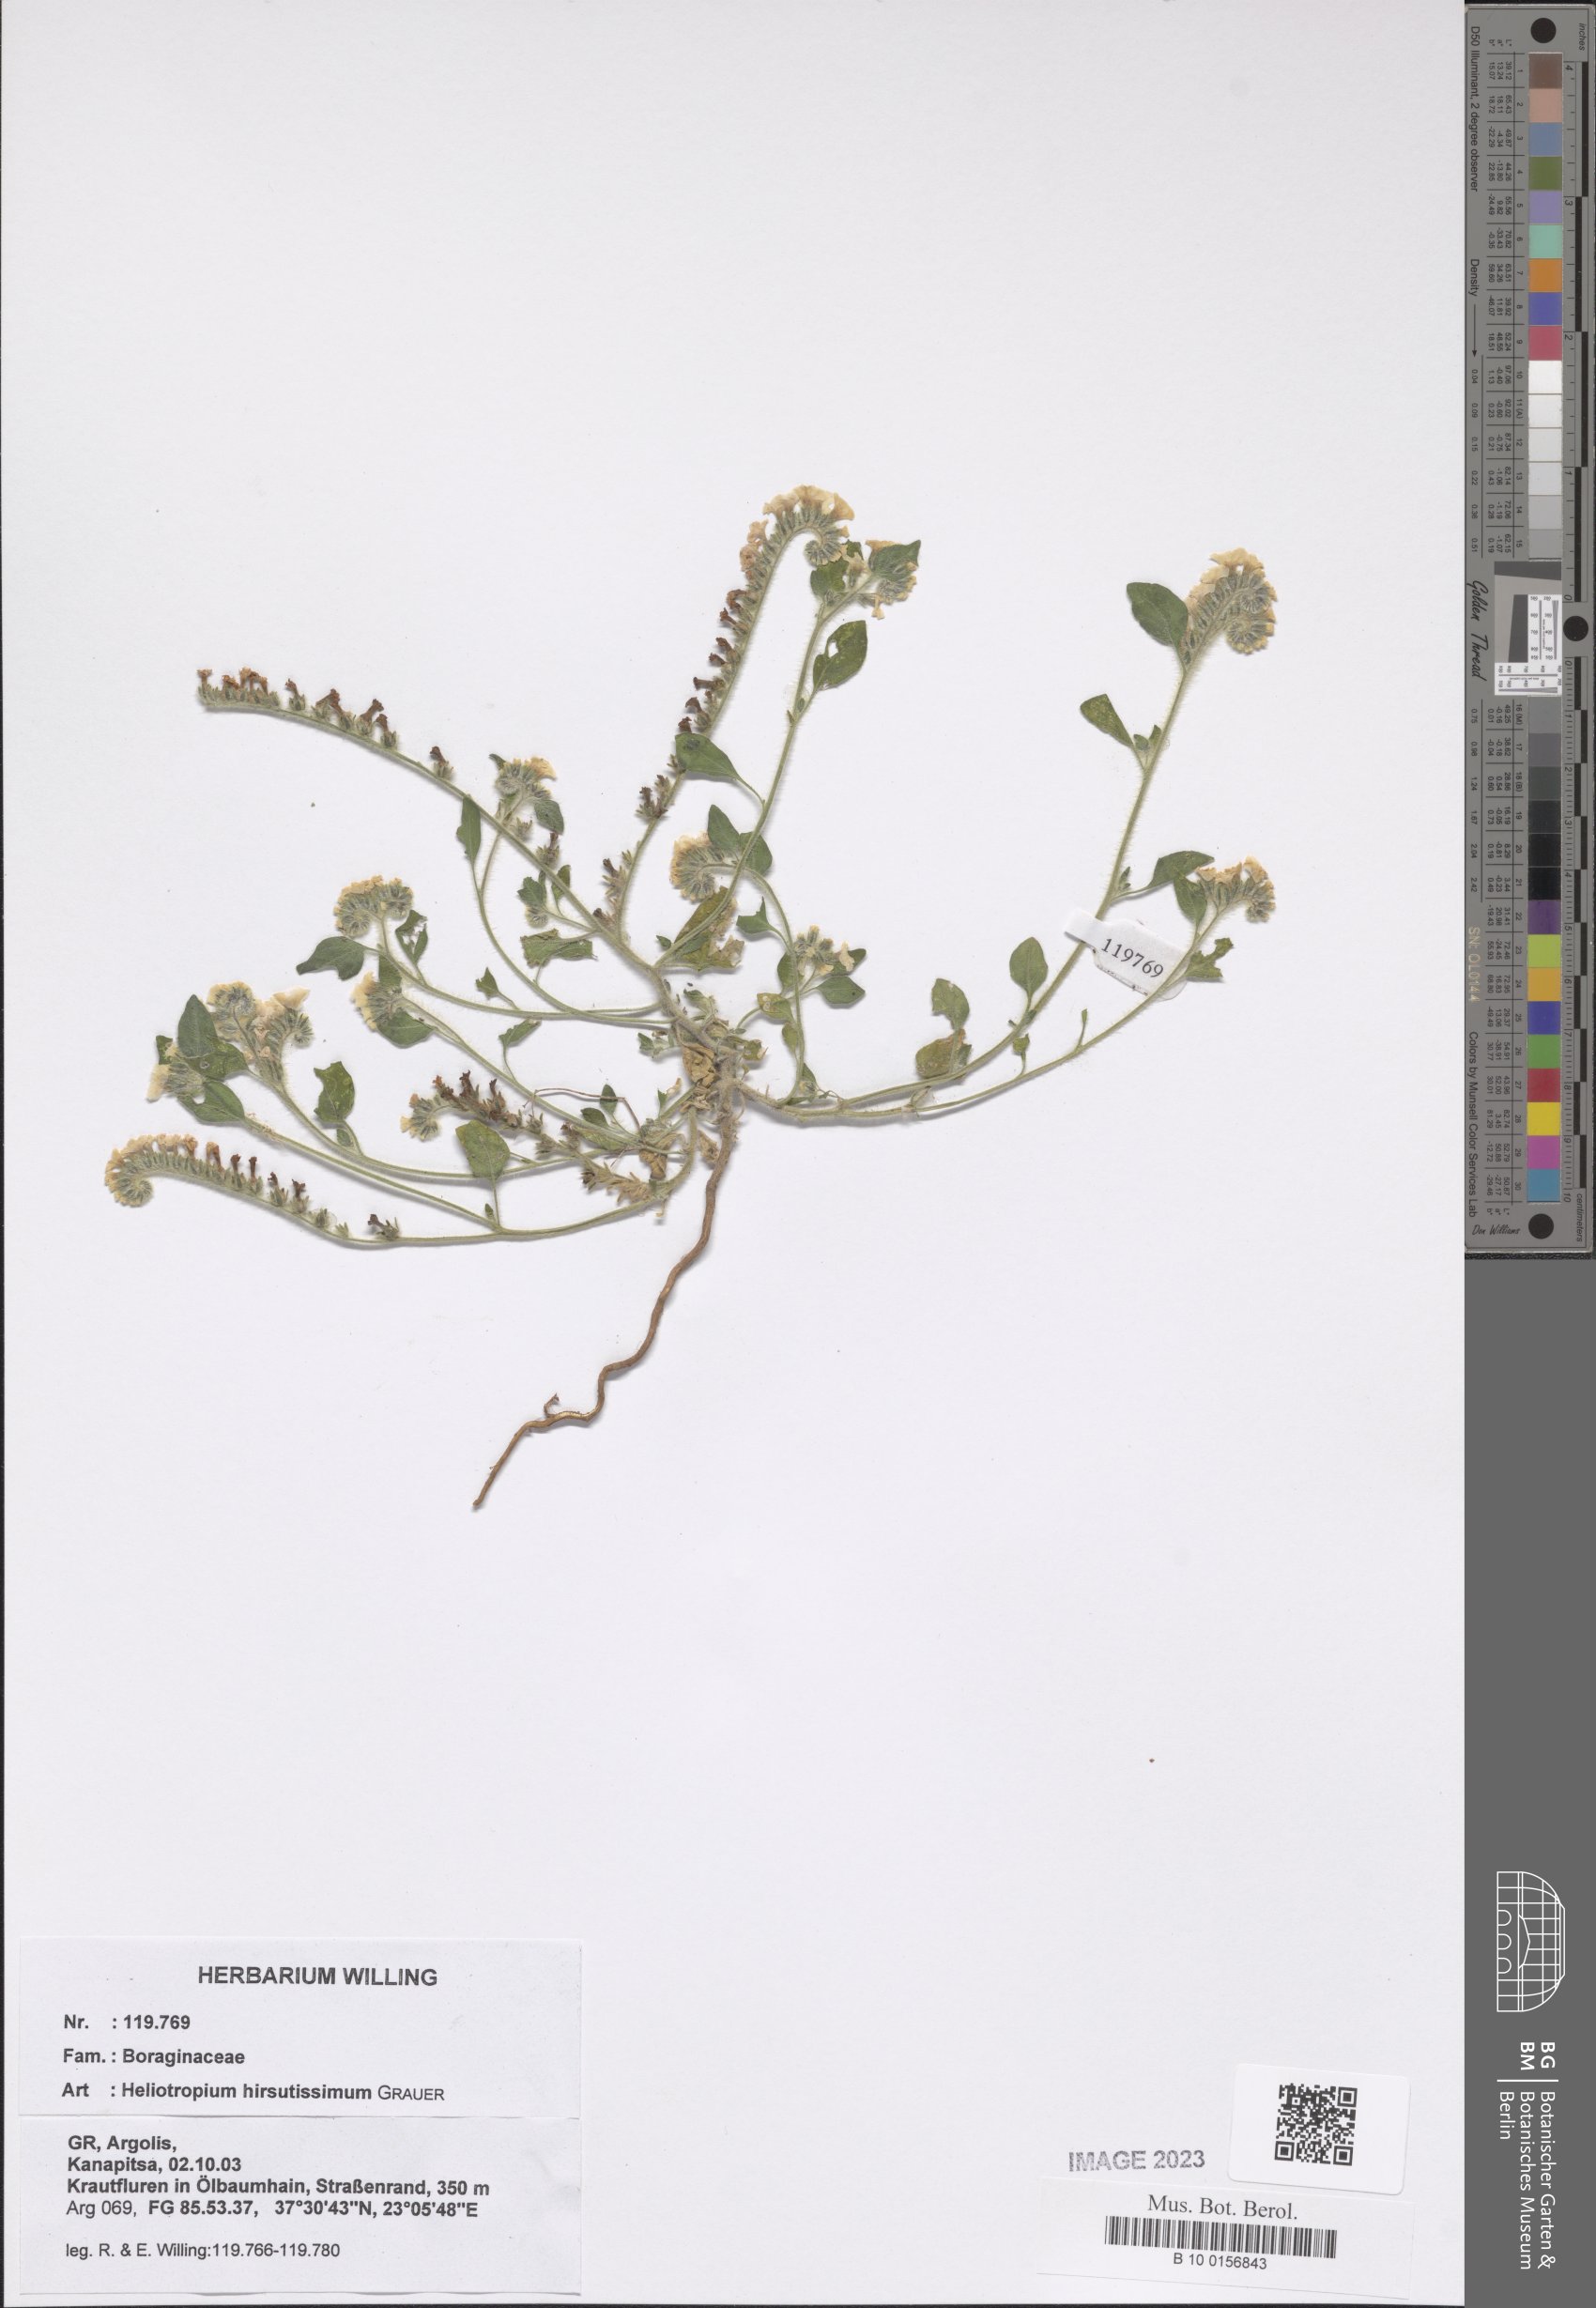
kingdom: Plantae
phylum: Tracheophyta
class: Magnoliopsida
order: Boraginales
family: Heliotropiaceae
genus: Heliotropium
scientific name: Heliotropium hirsutissimum
